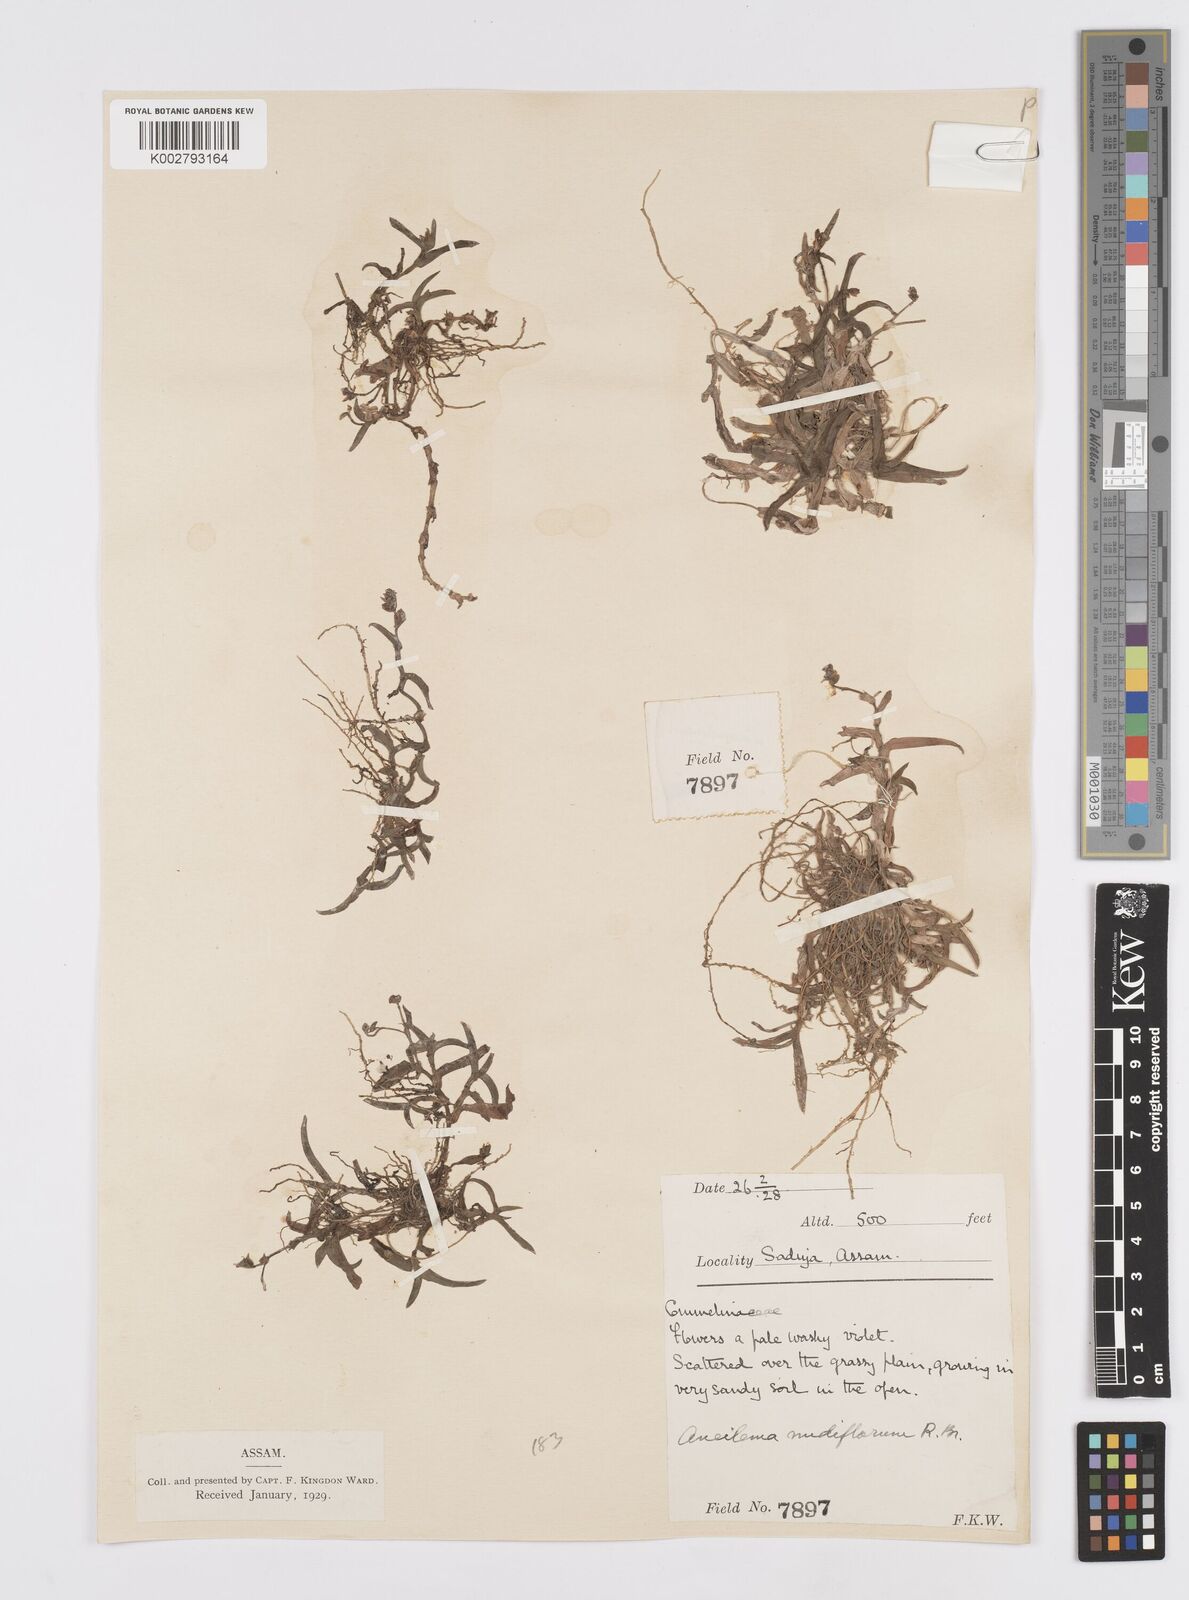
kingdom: Plantae
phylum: Tracheophyta
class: Liliopsida
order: Commelinales
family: Commelinaceae
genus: Murdannia
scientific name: Murdannia
